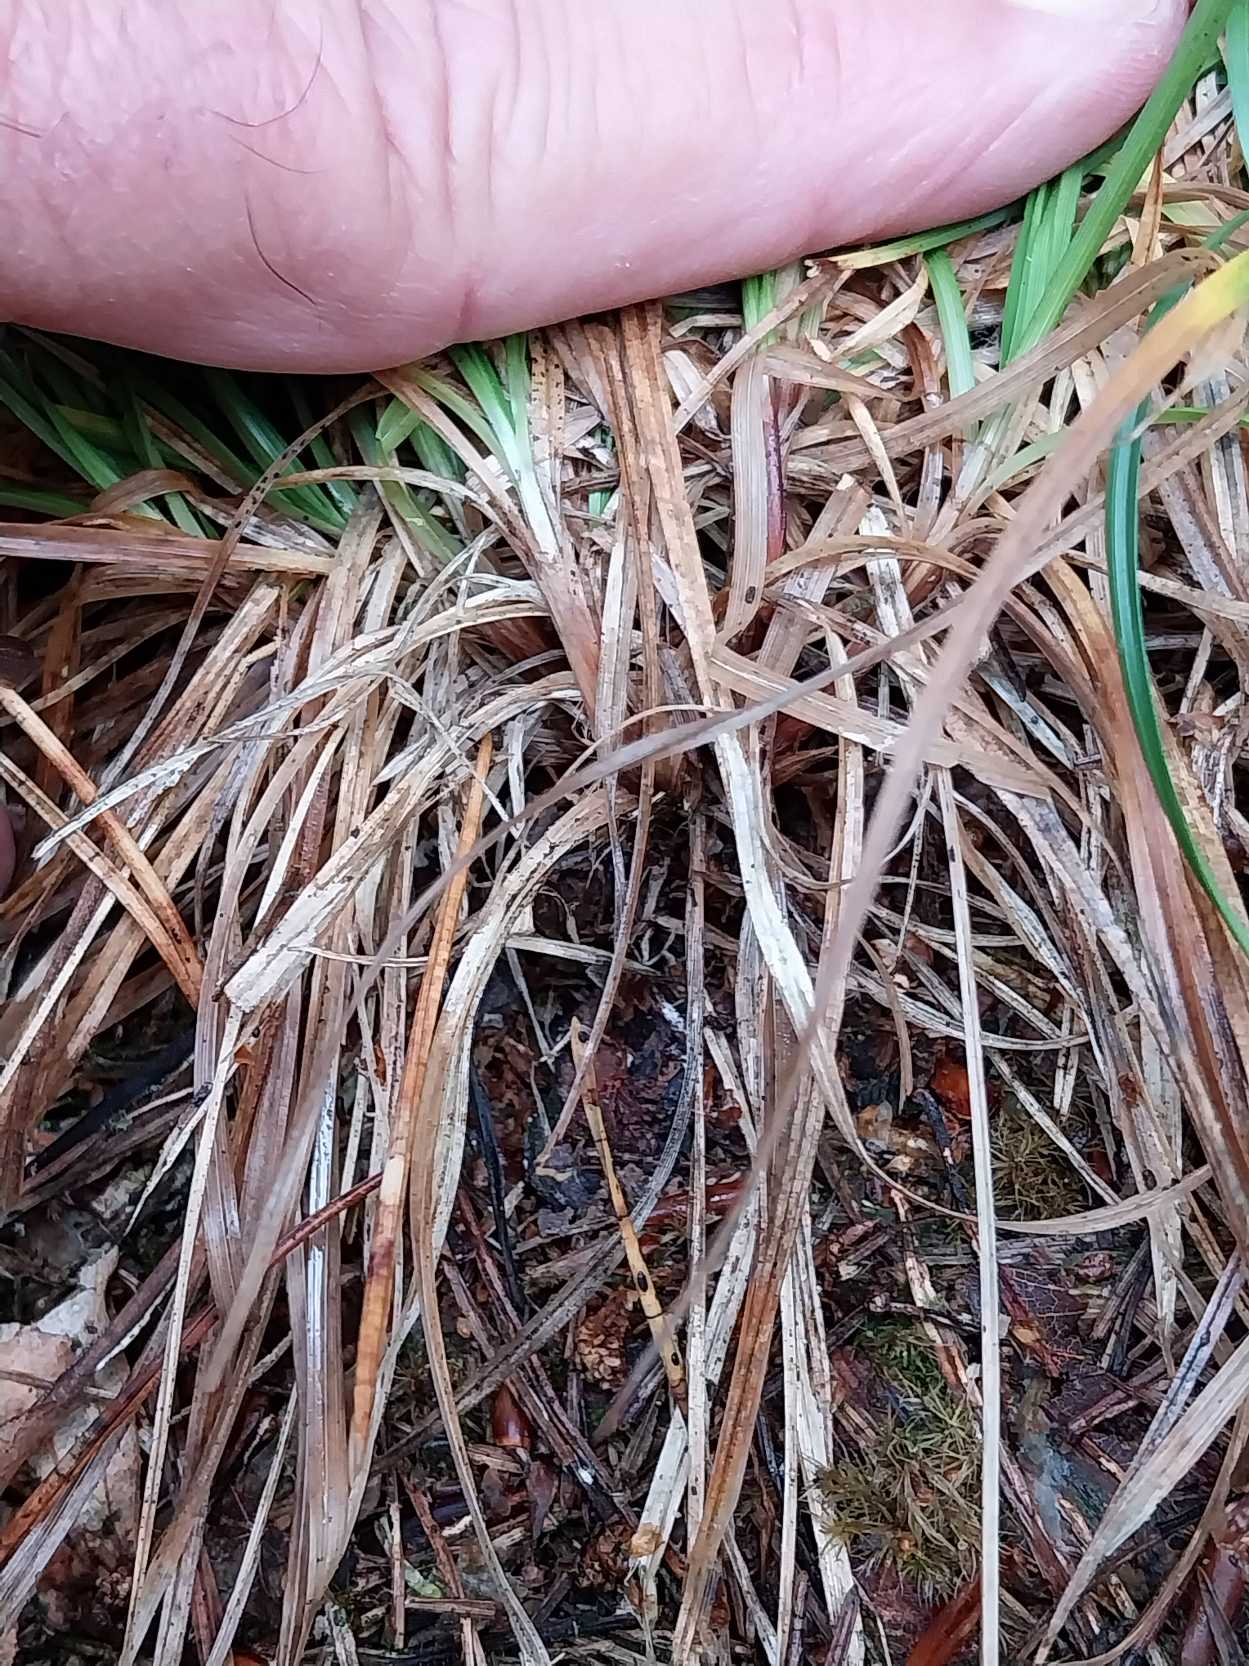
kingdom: Plantae
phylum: Tracheophyta
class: Liliopsida
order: Poales
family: Cyperaceae
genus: Carex
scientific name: Carex pilulifera
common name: Pille-star
